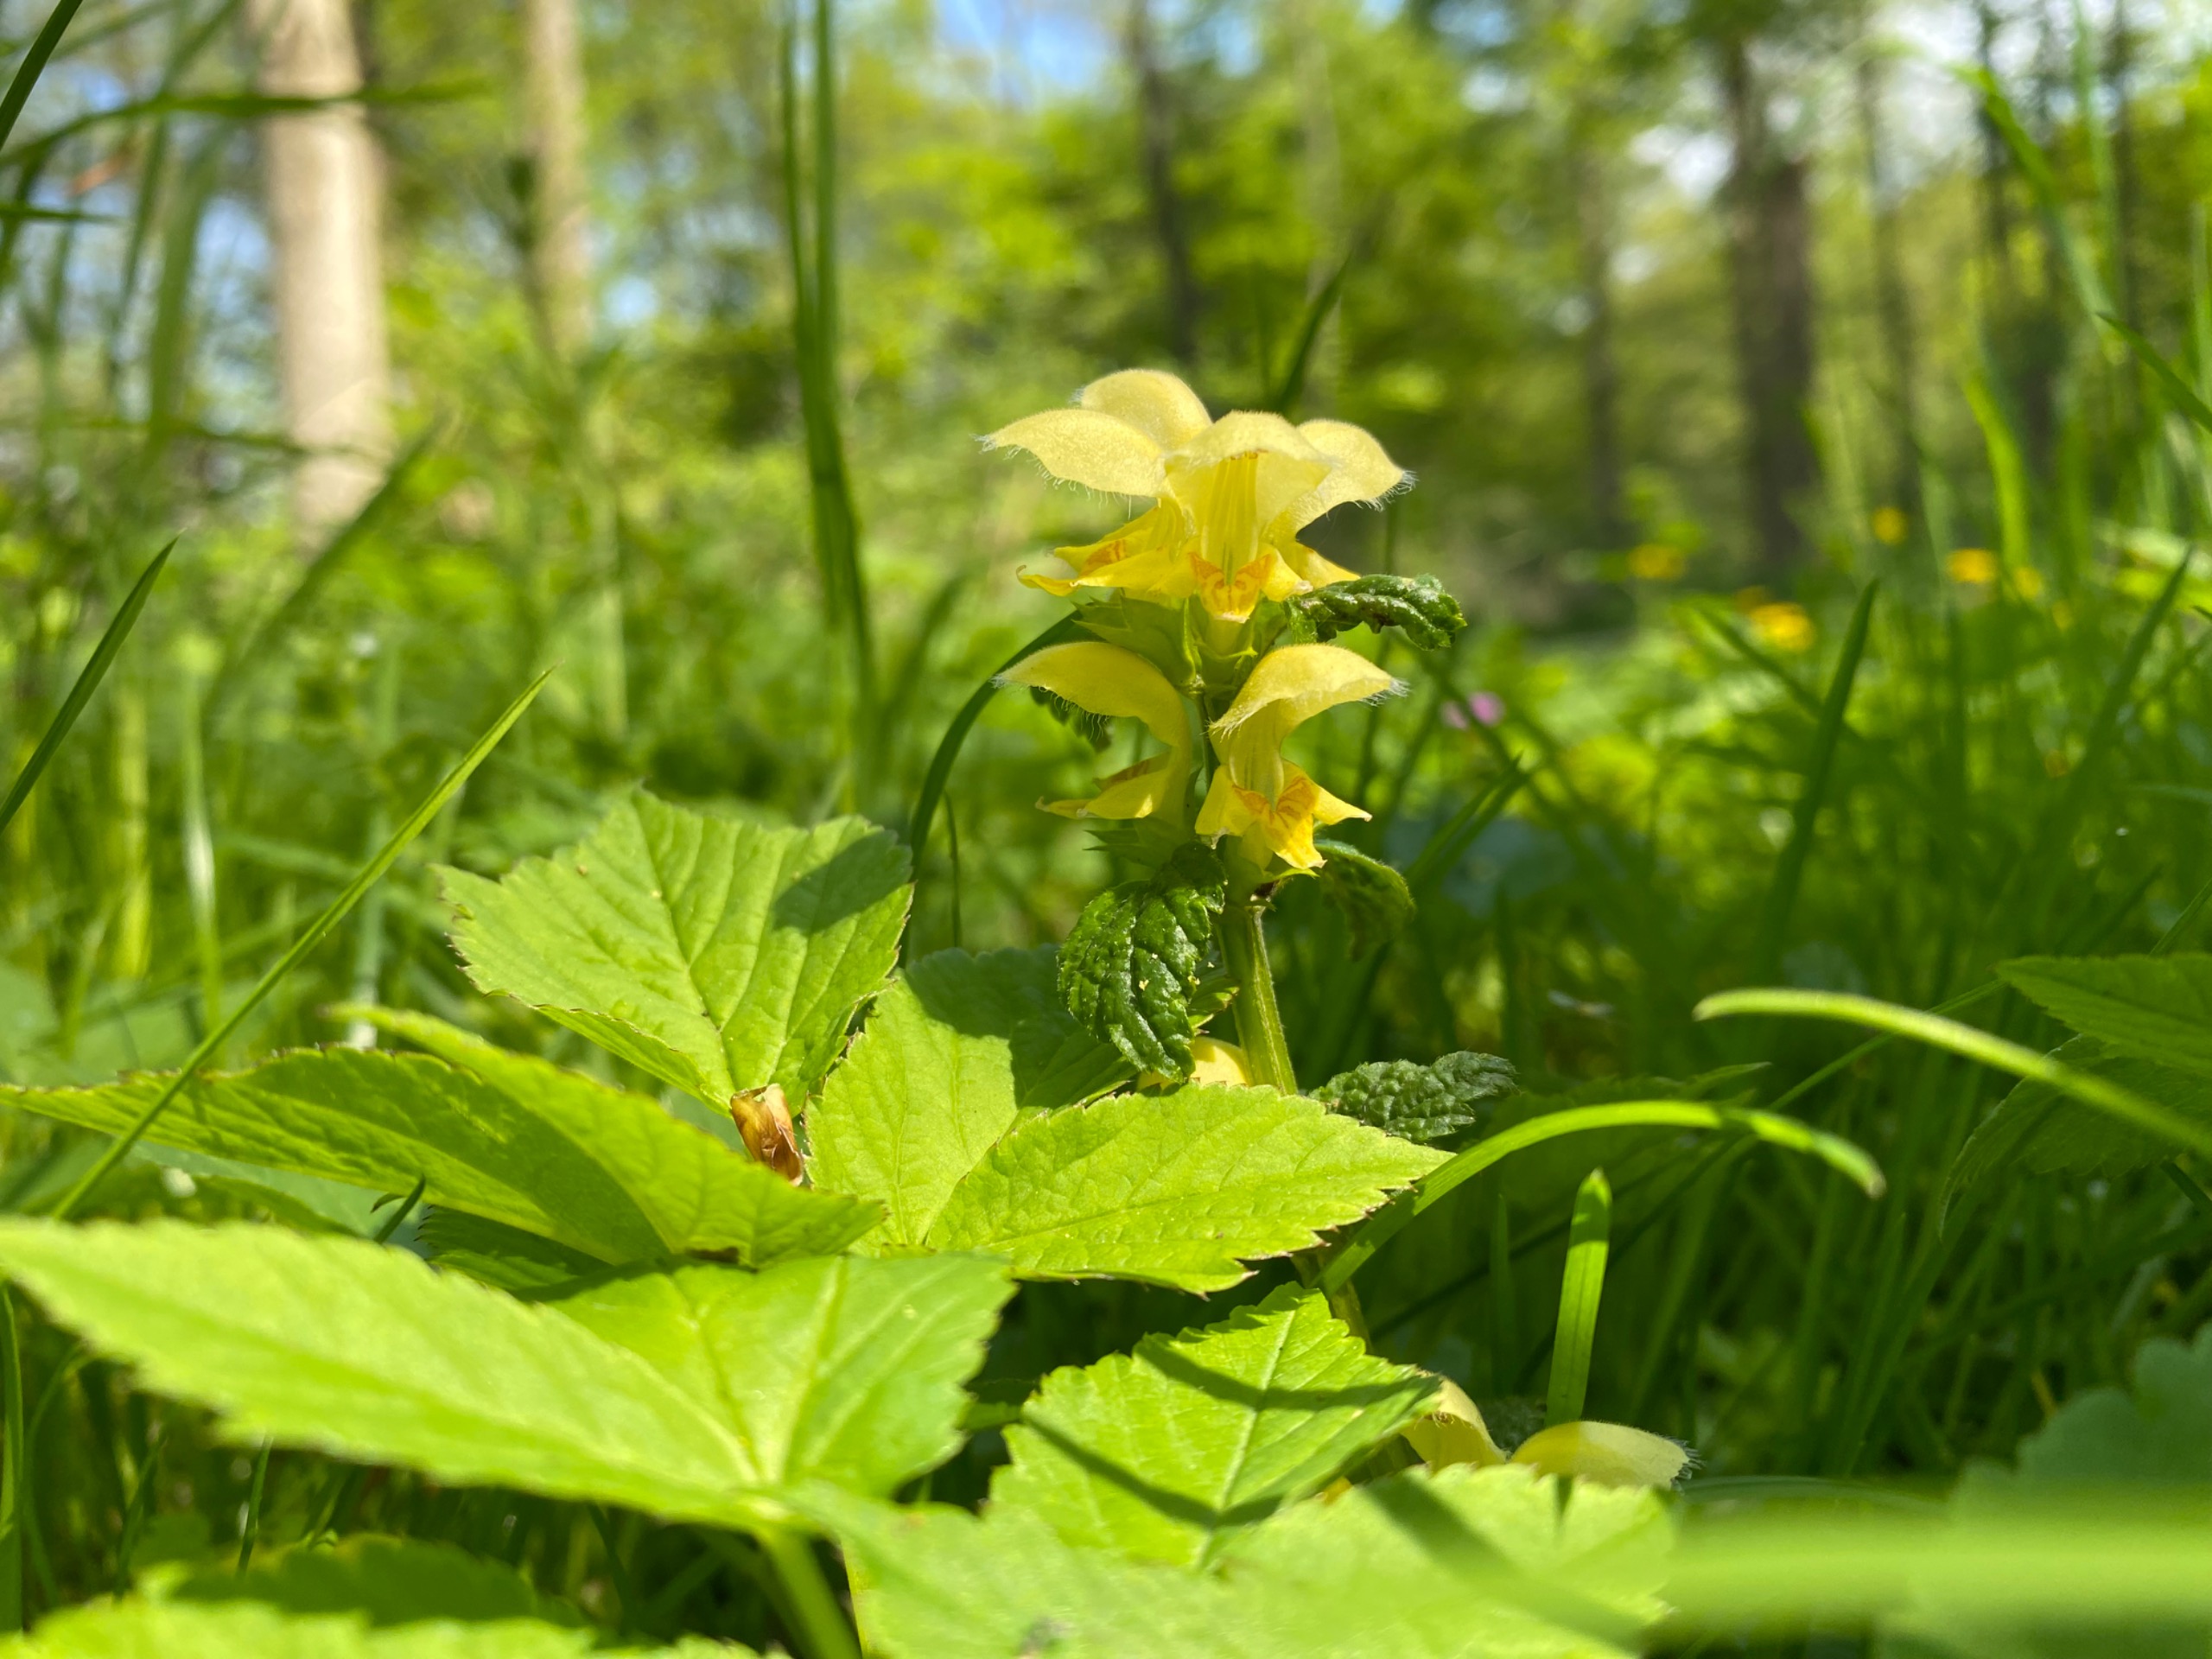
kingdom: Plantae
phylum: Tracheophyta
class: Magnoliopsida
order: Lamiales
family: Lamiaceae
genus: Lamium
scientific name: Lamium galeobdolon
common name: Guldnælde
